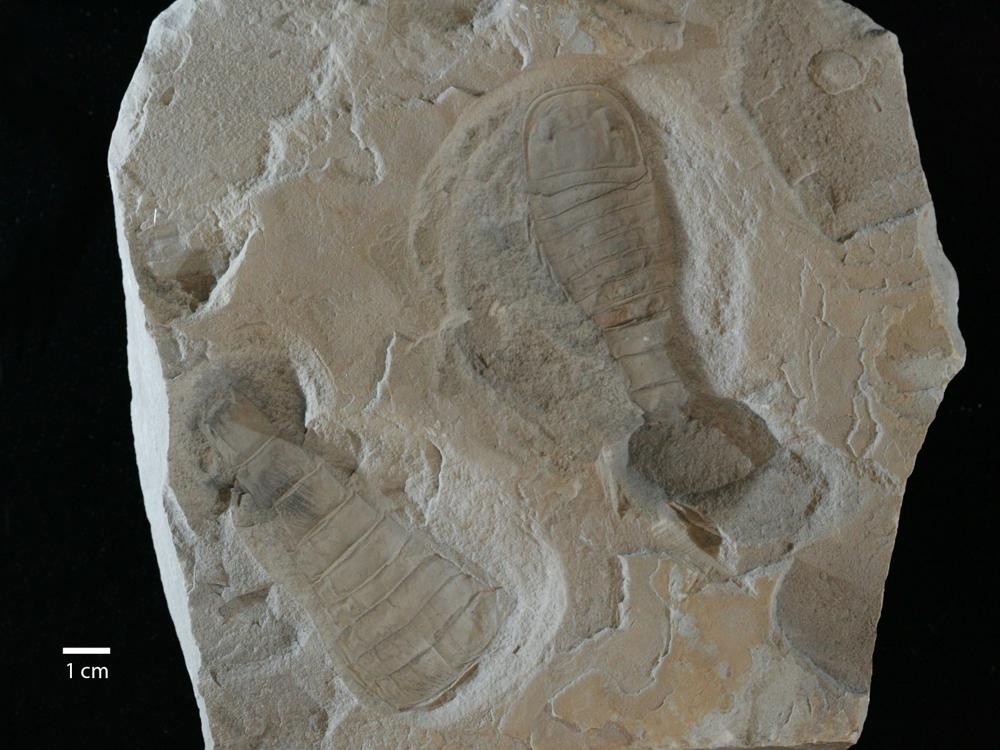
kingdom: Animalia
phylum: Arthropoda
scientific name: Arthropoda
